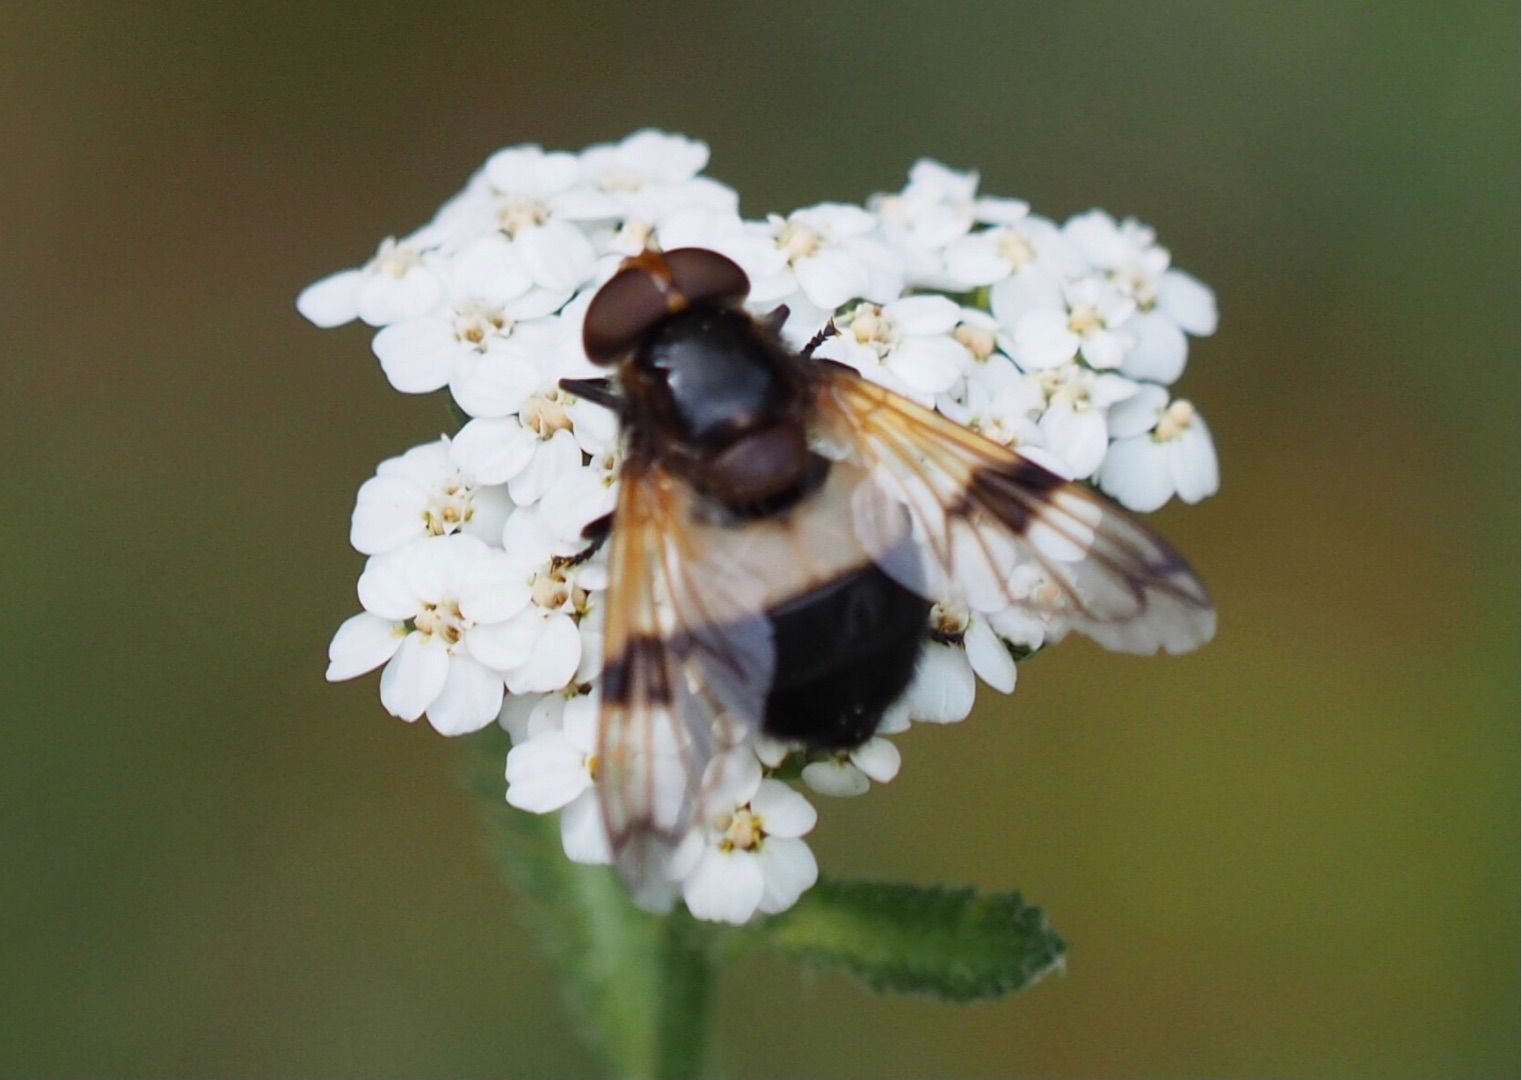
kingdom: Animalia
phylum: Arthropoda
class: Insecta
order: Diptera
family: Syrphidae
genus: Volucella
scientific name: Volucella pellucens
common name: Hvidbåndet humlesvirreflue
